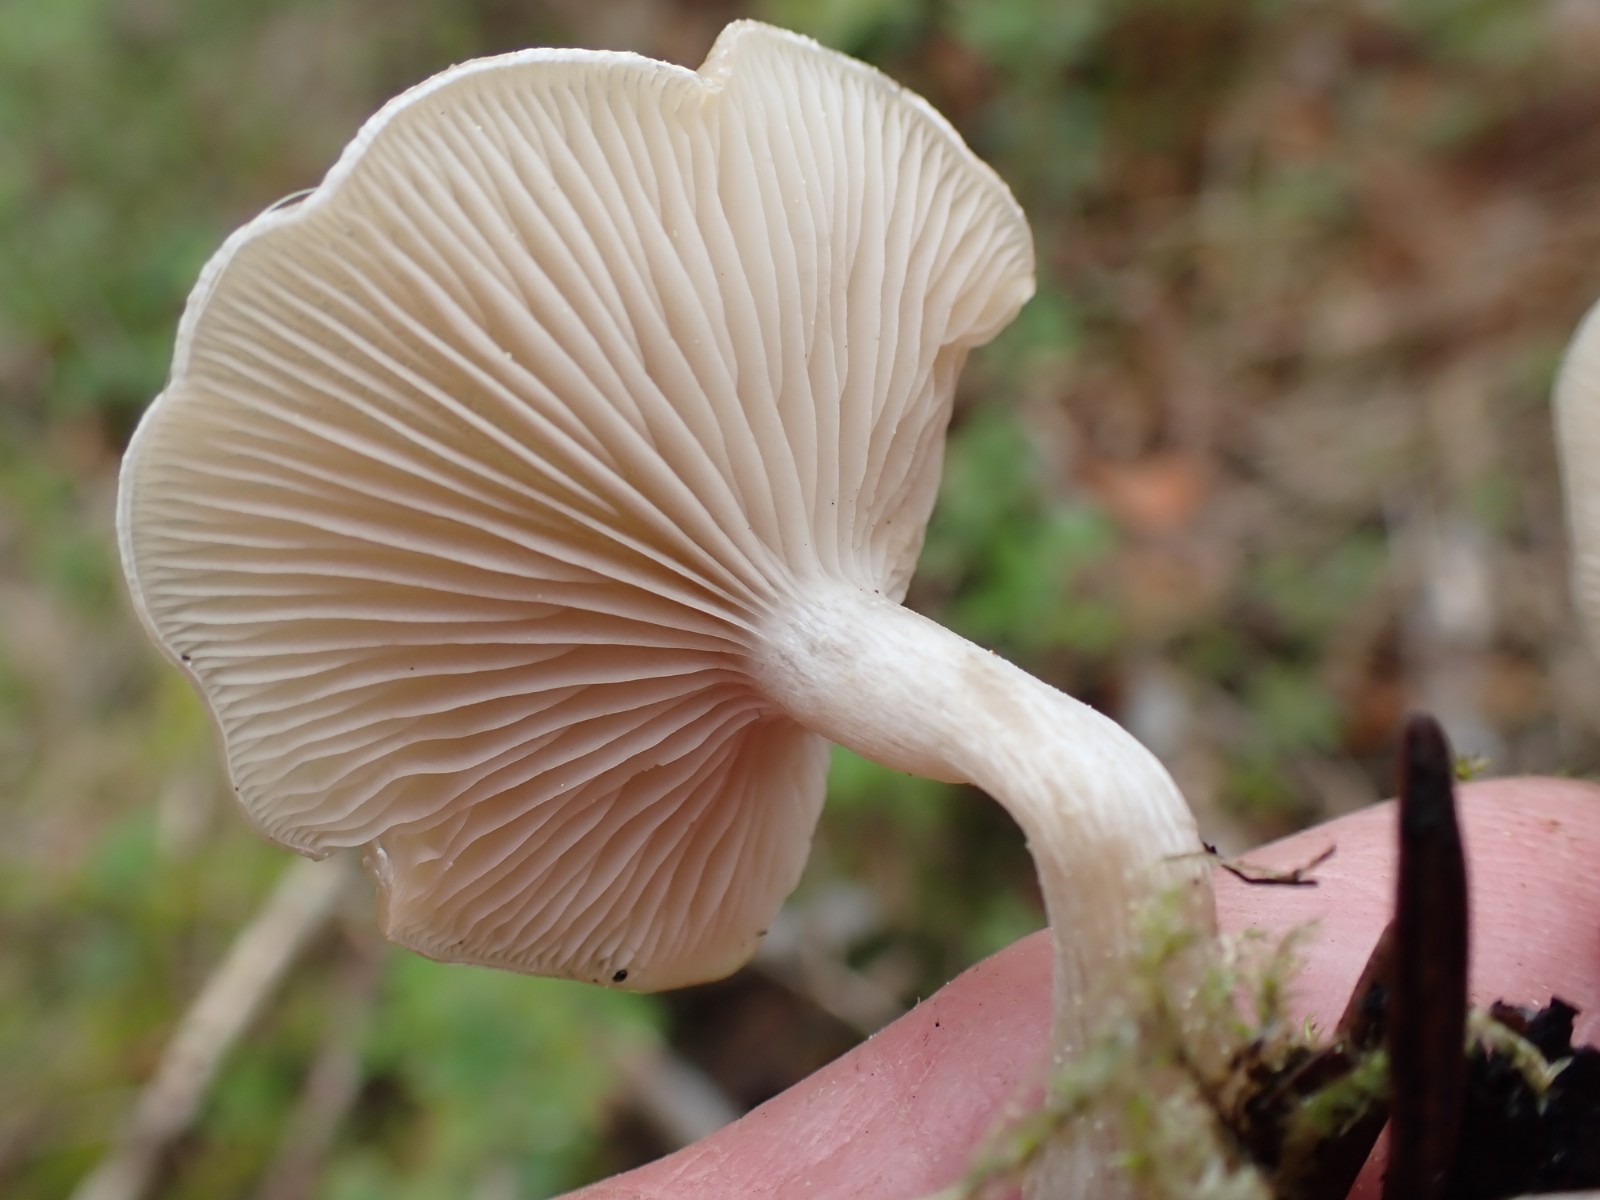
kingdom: Fungi
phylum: Basidiomycota
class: Agaricomycetes
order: Agaricales
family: Tricholomataceae
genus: Clitocybe
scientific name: Clitocybe fragrans
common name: vellugtende tragthat
